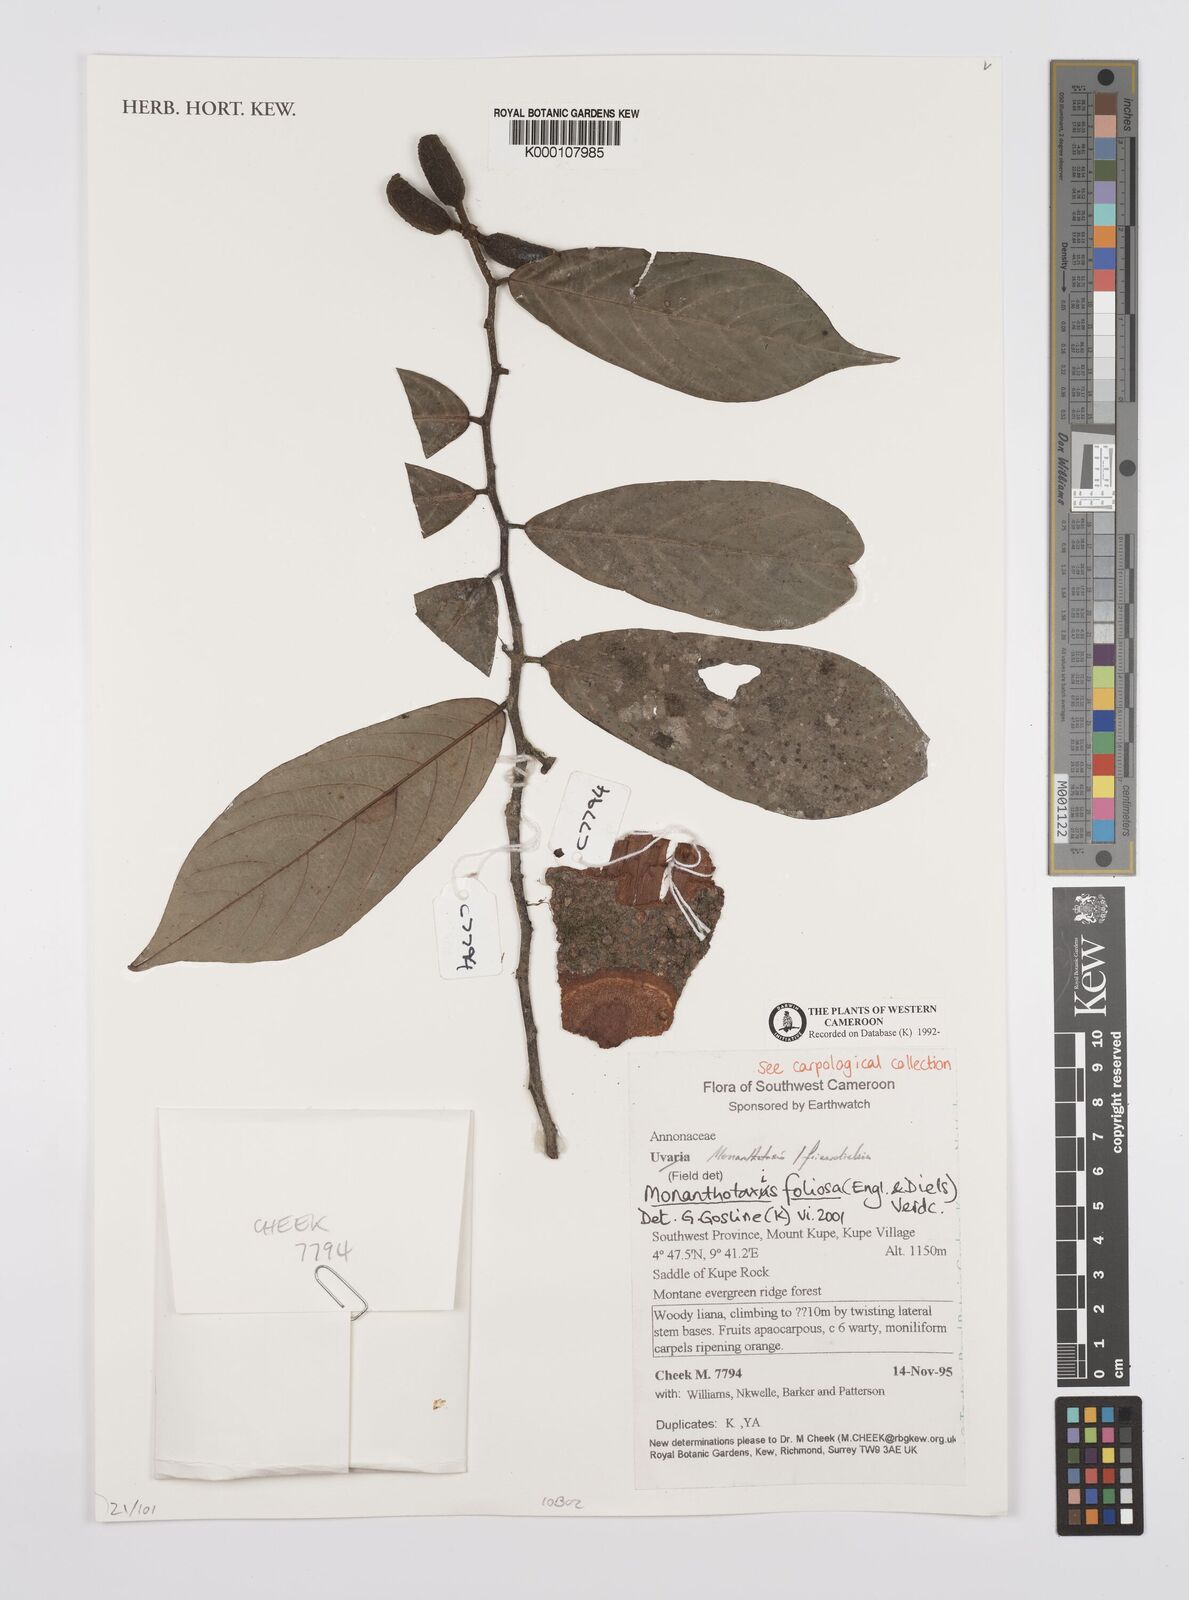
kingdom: Plantae
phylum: Tracheophyta
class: Magnoliopsida
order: Magnoliales
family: Annonaceae
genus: Monanthotaxis
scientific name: Monanthotaxis foliosa
